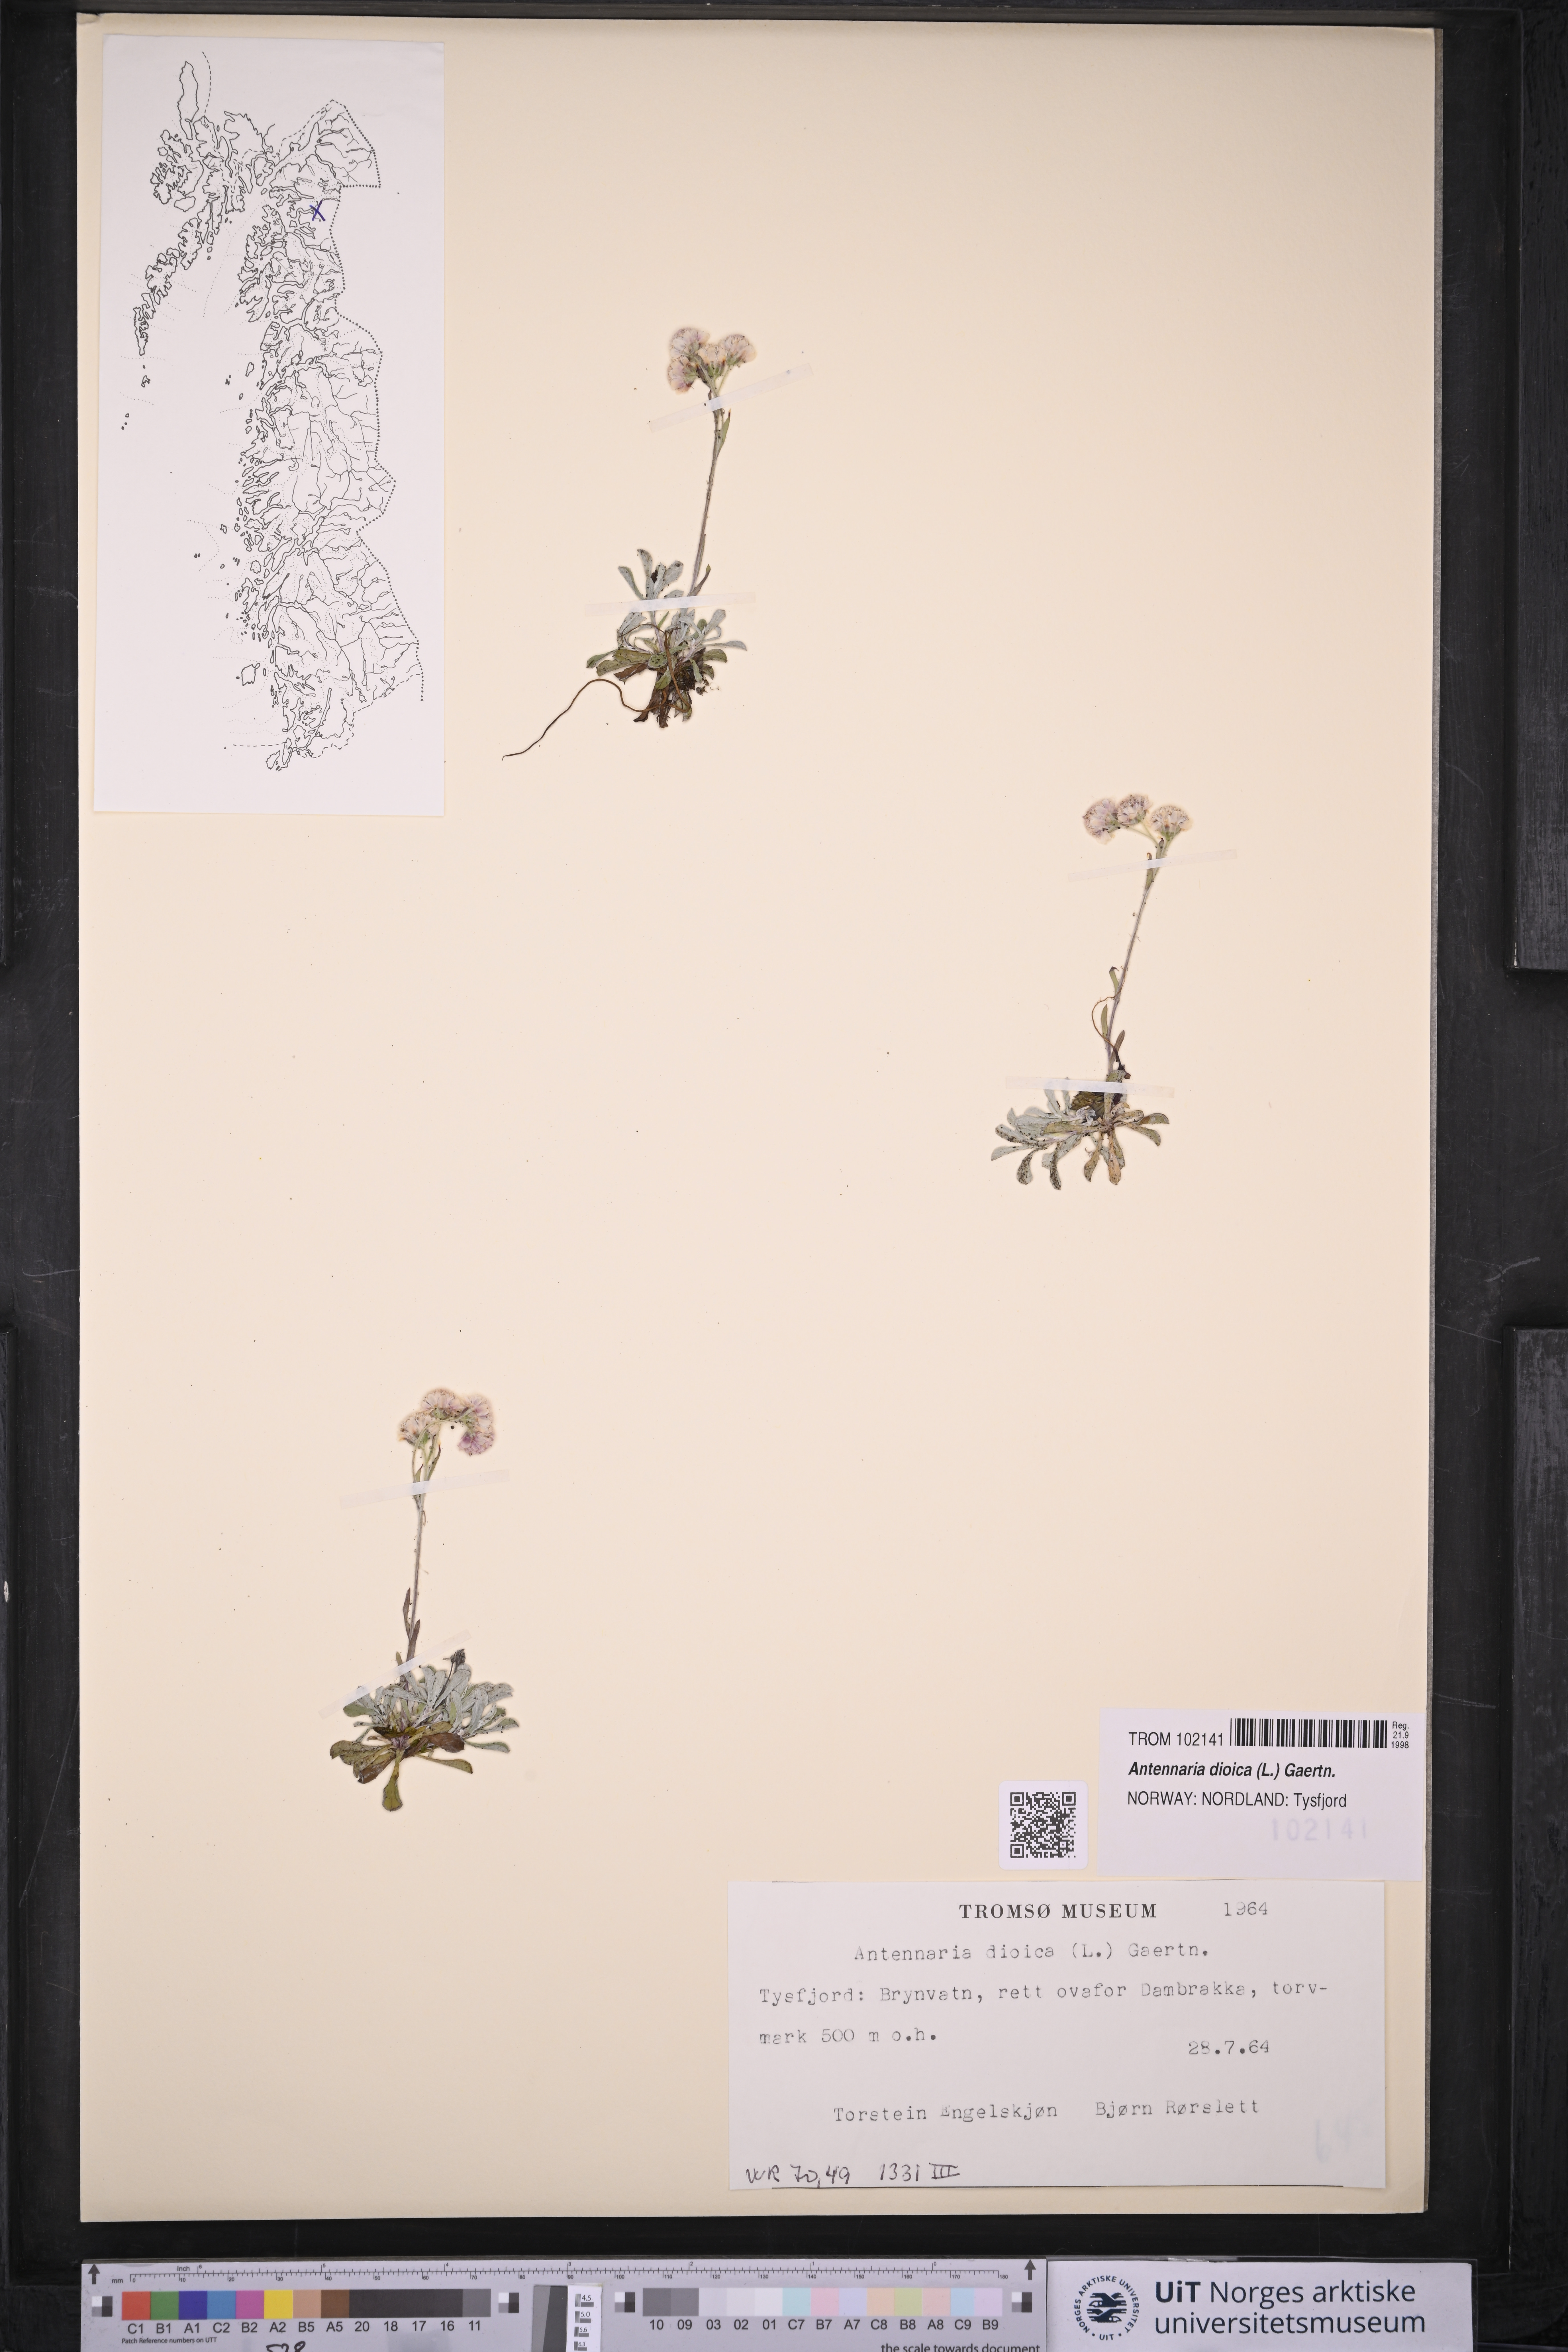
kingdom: Plantae
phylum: Tracheophyta
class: Magnoliopsida
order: Asterales
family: Asteraceae
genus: Antennaria
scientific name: Antennaria dioica
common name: Mountain everlasting
